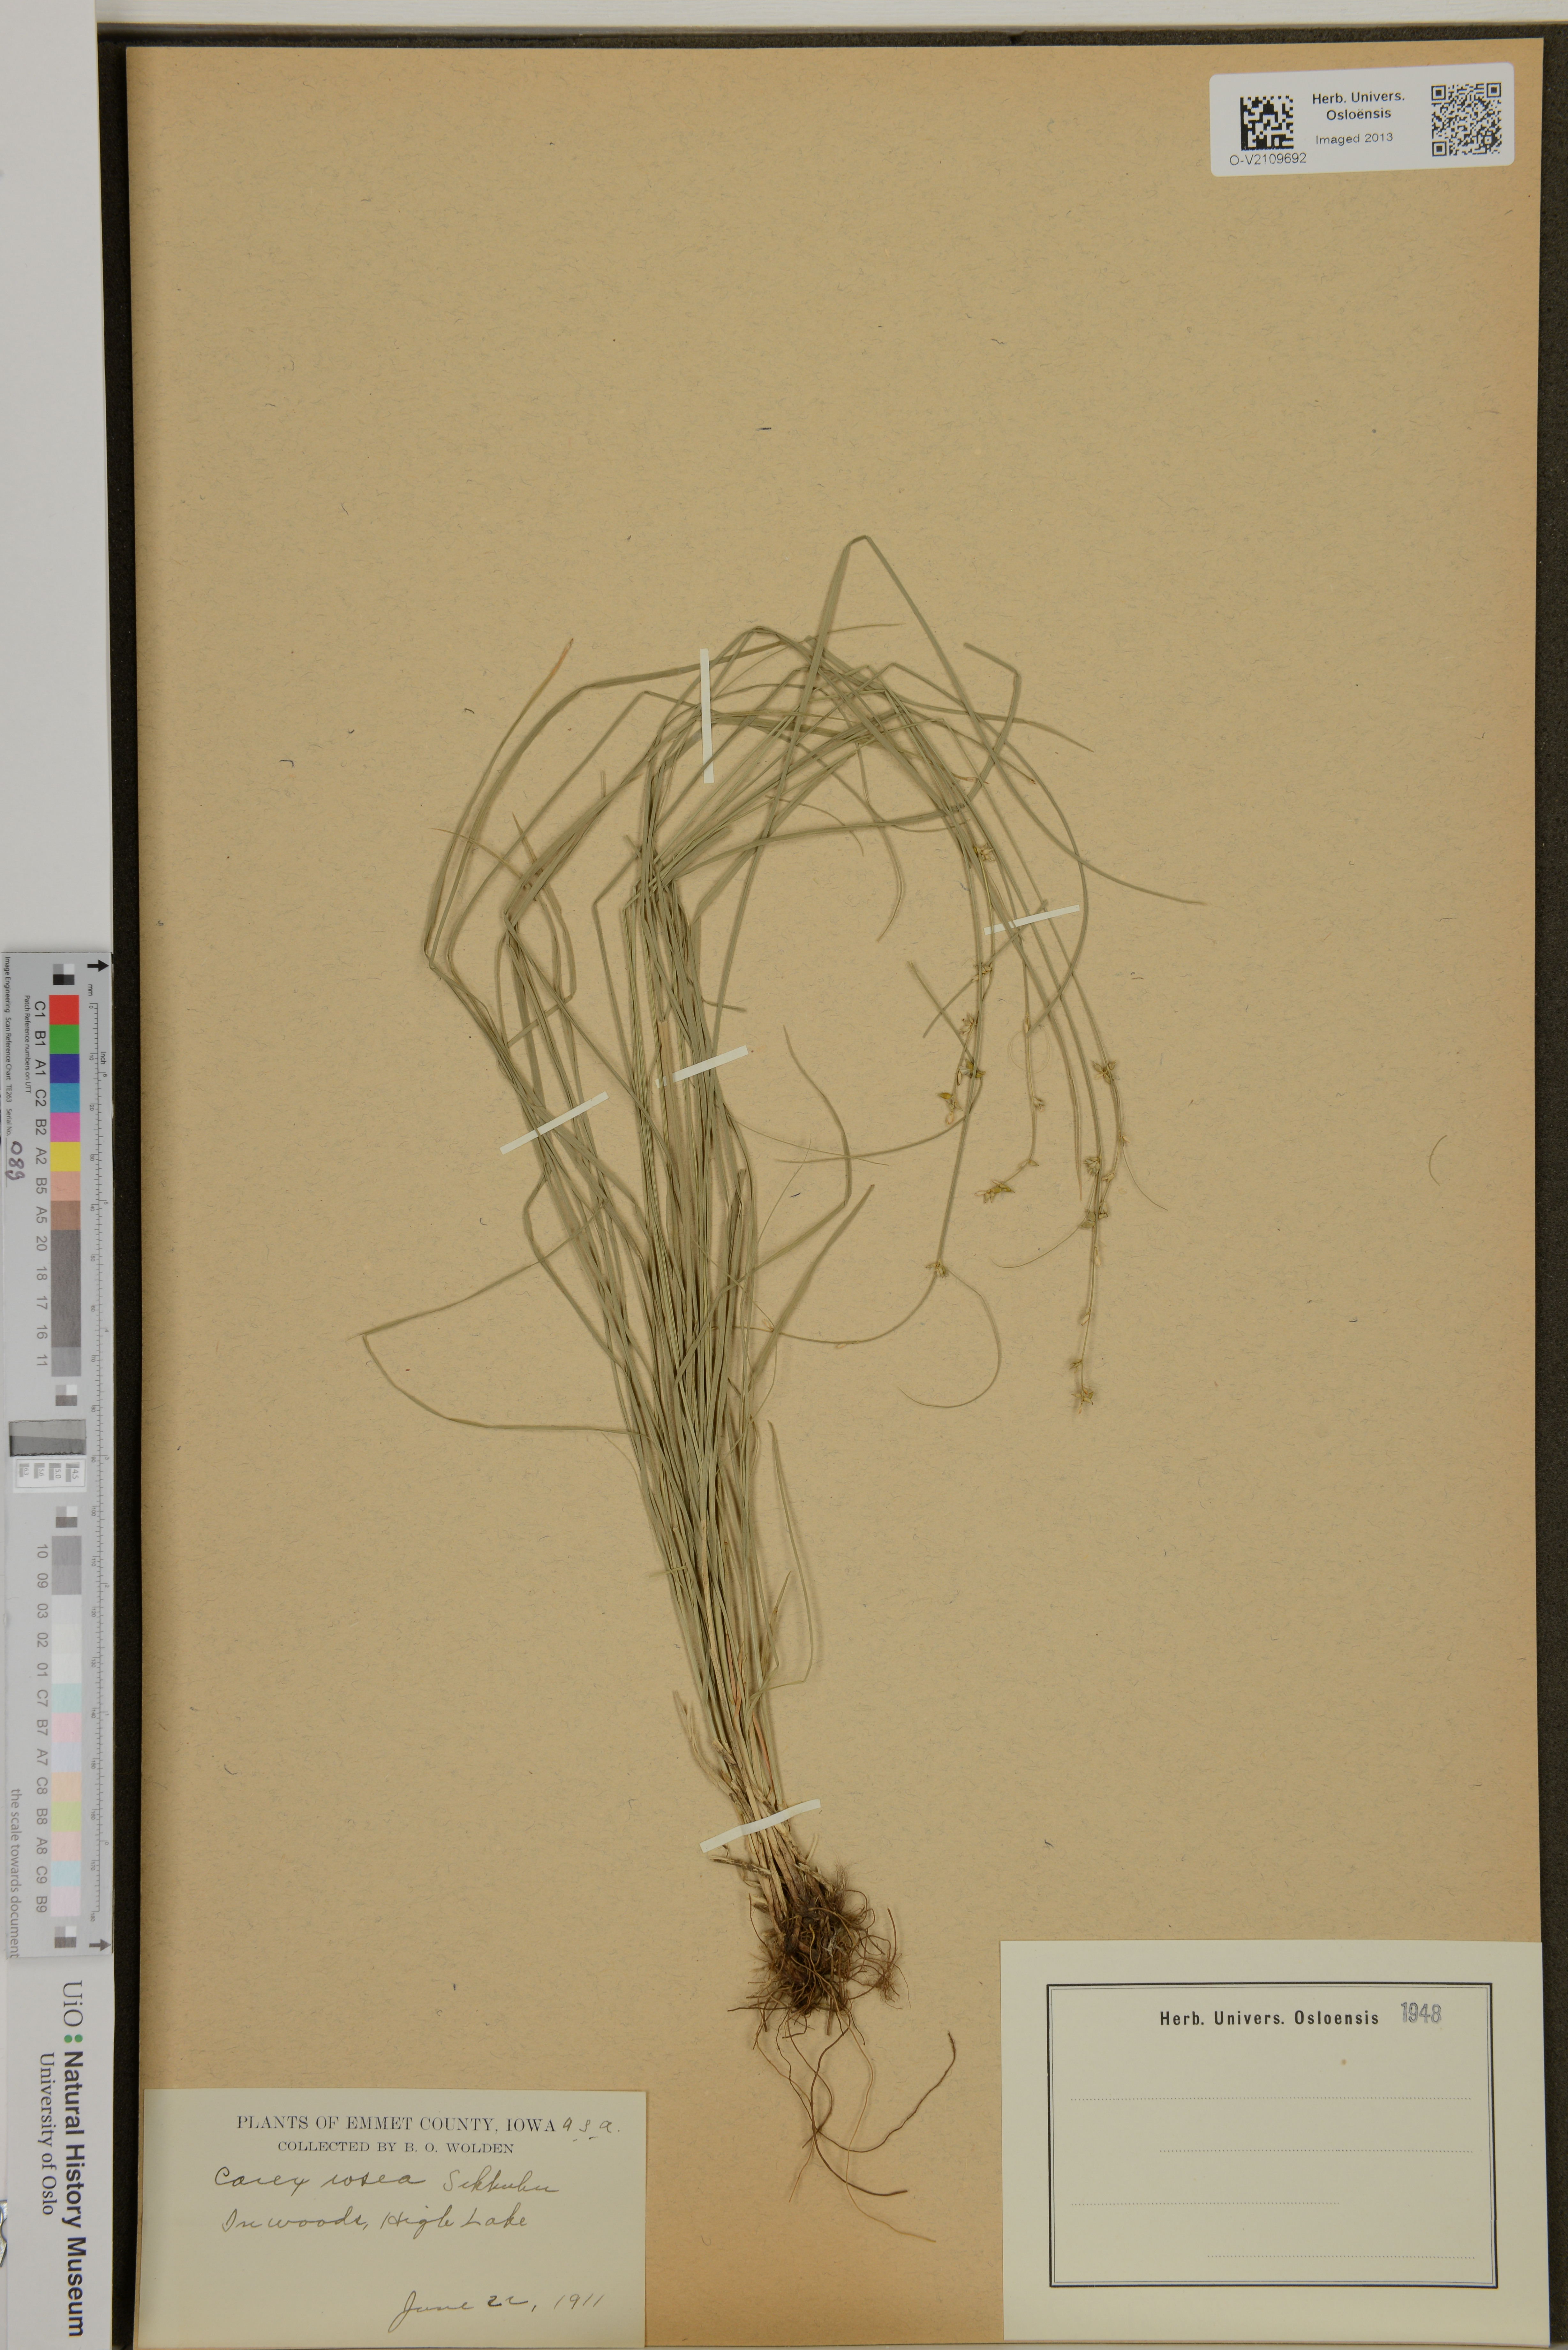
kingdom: Plantae
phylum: Tracheophyta
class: Liliopsida
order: Poales
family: Cyperaceae
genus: Carex
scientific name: Carex rosea
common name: Curly-styled wood sedge
